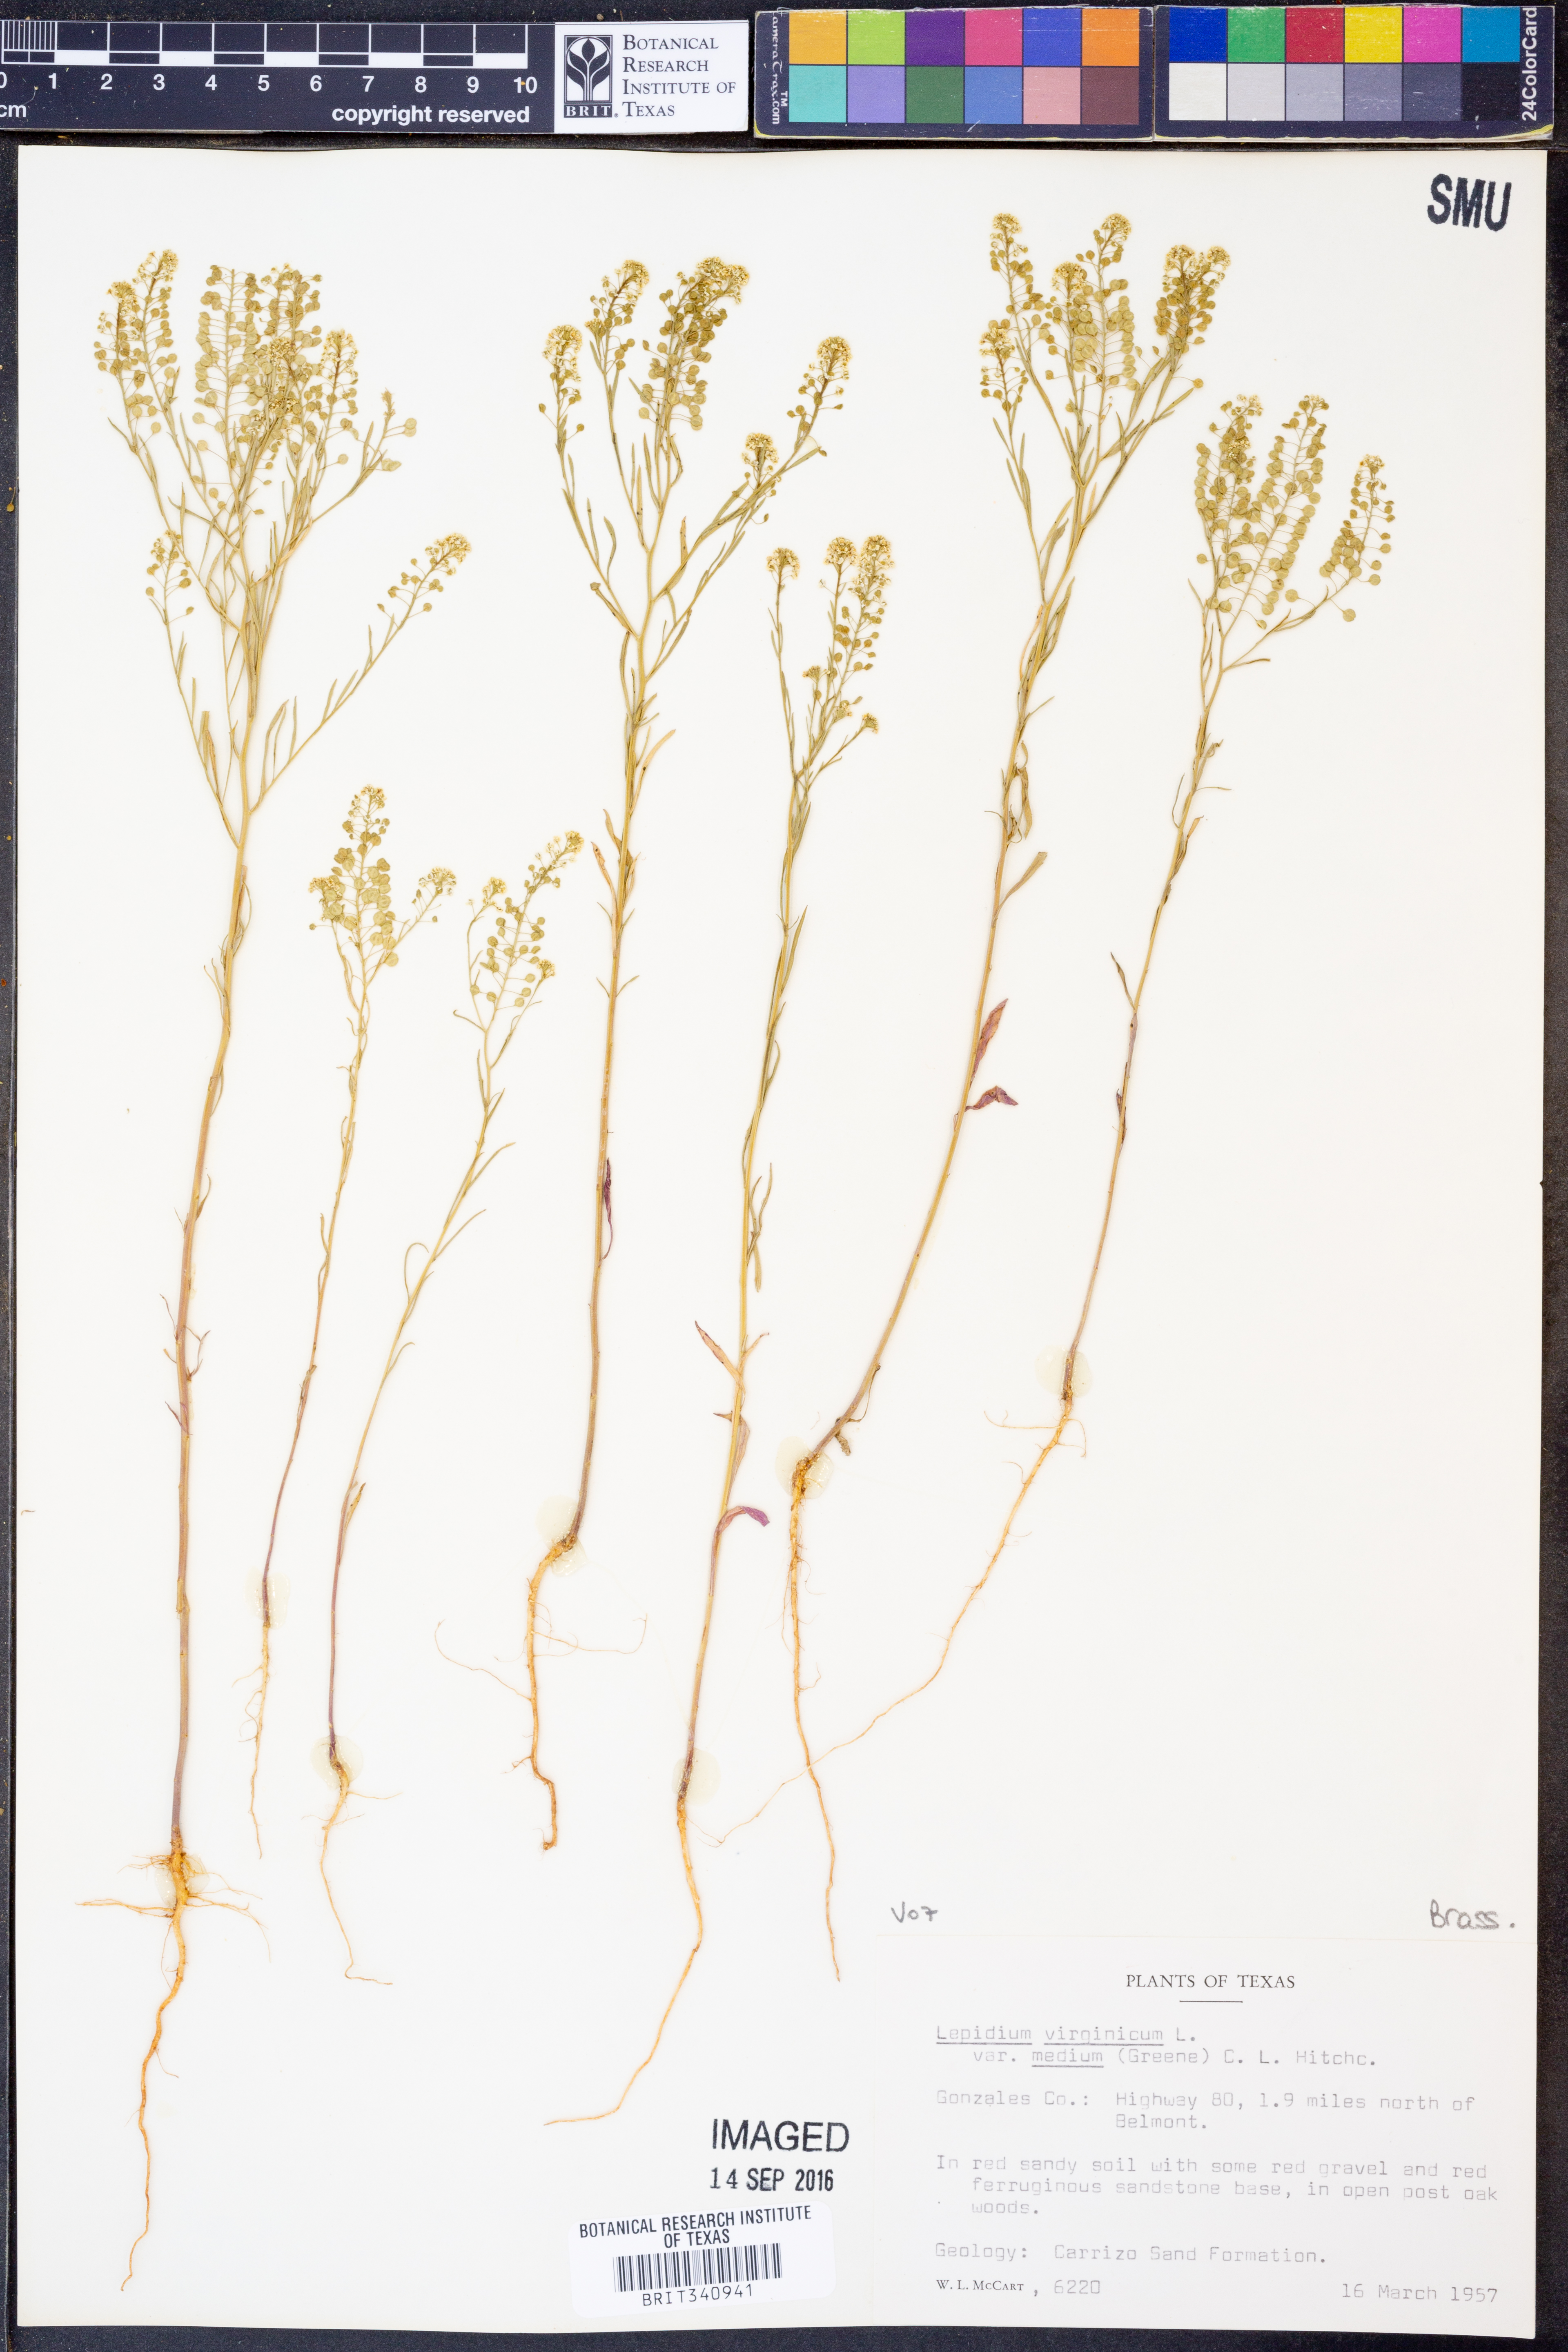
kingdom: Plantae
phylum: Tracheophyta
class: Magnoliopsida
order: Brassicales
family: Brassicaceae
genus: Lepidium
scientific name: Lepidium virginicum
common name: Least pepperwort
